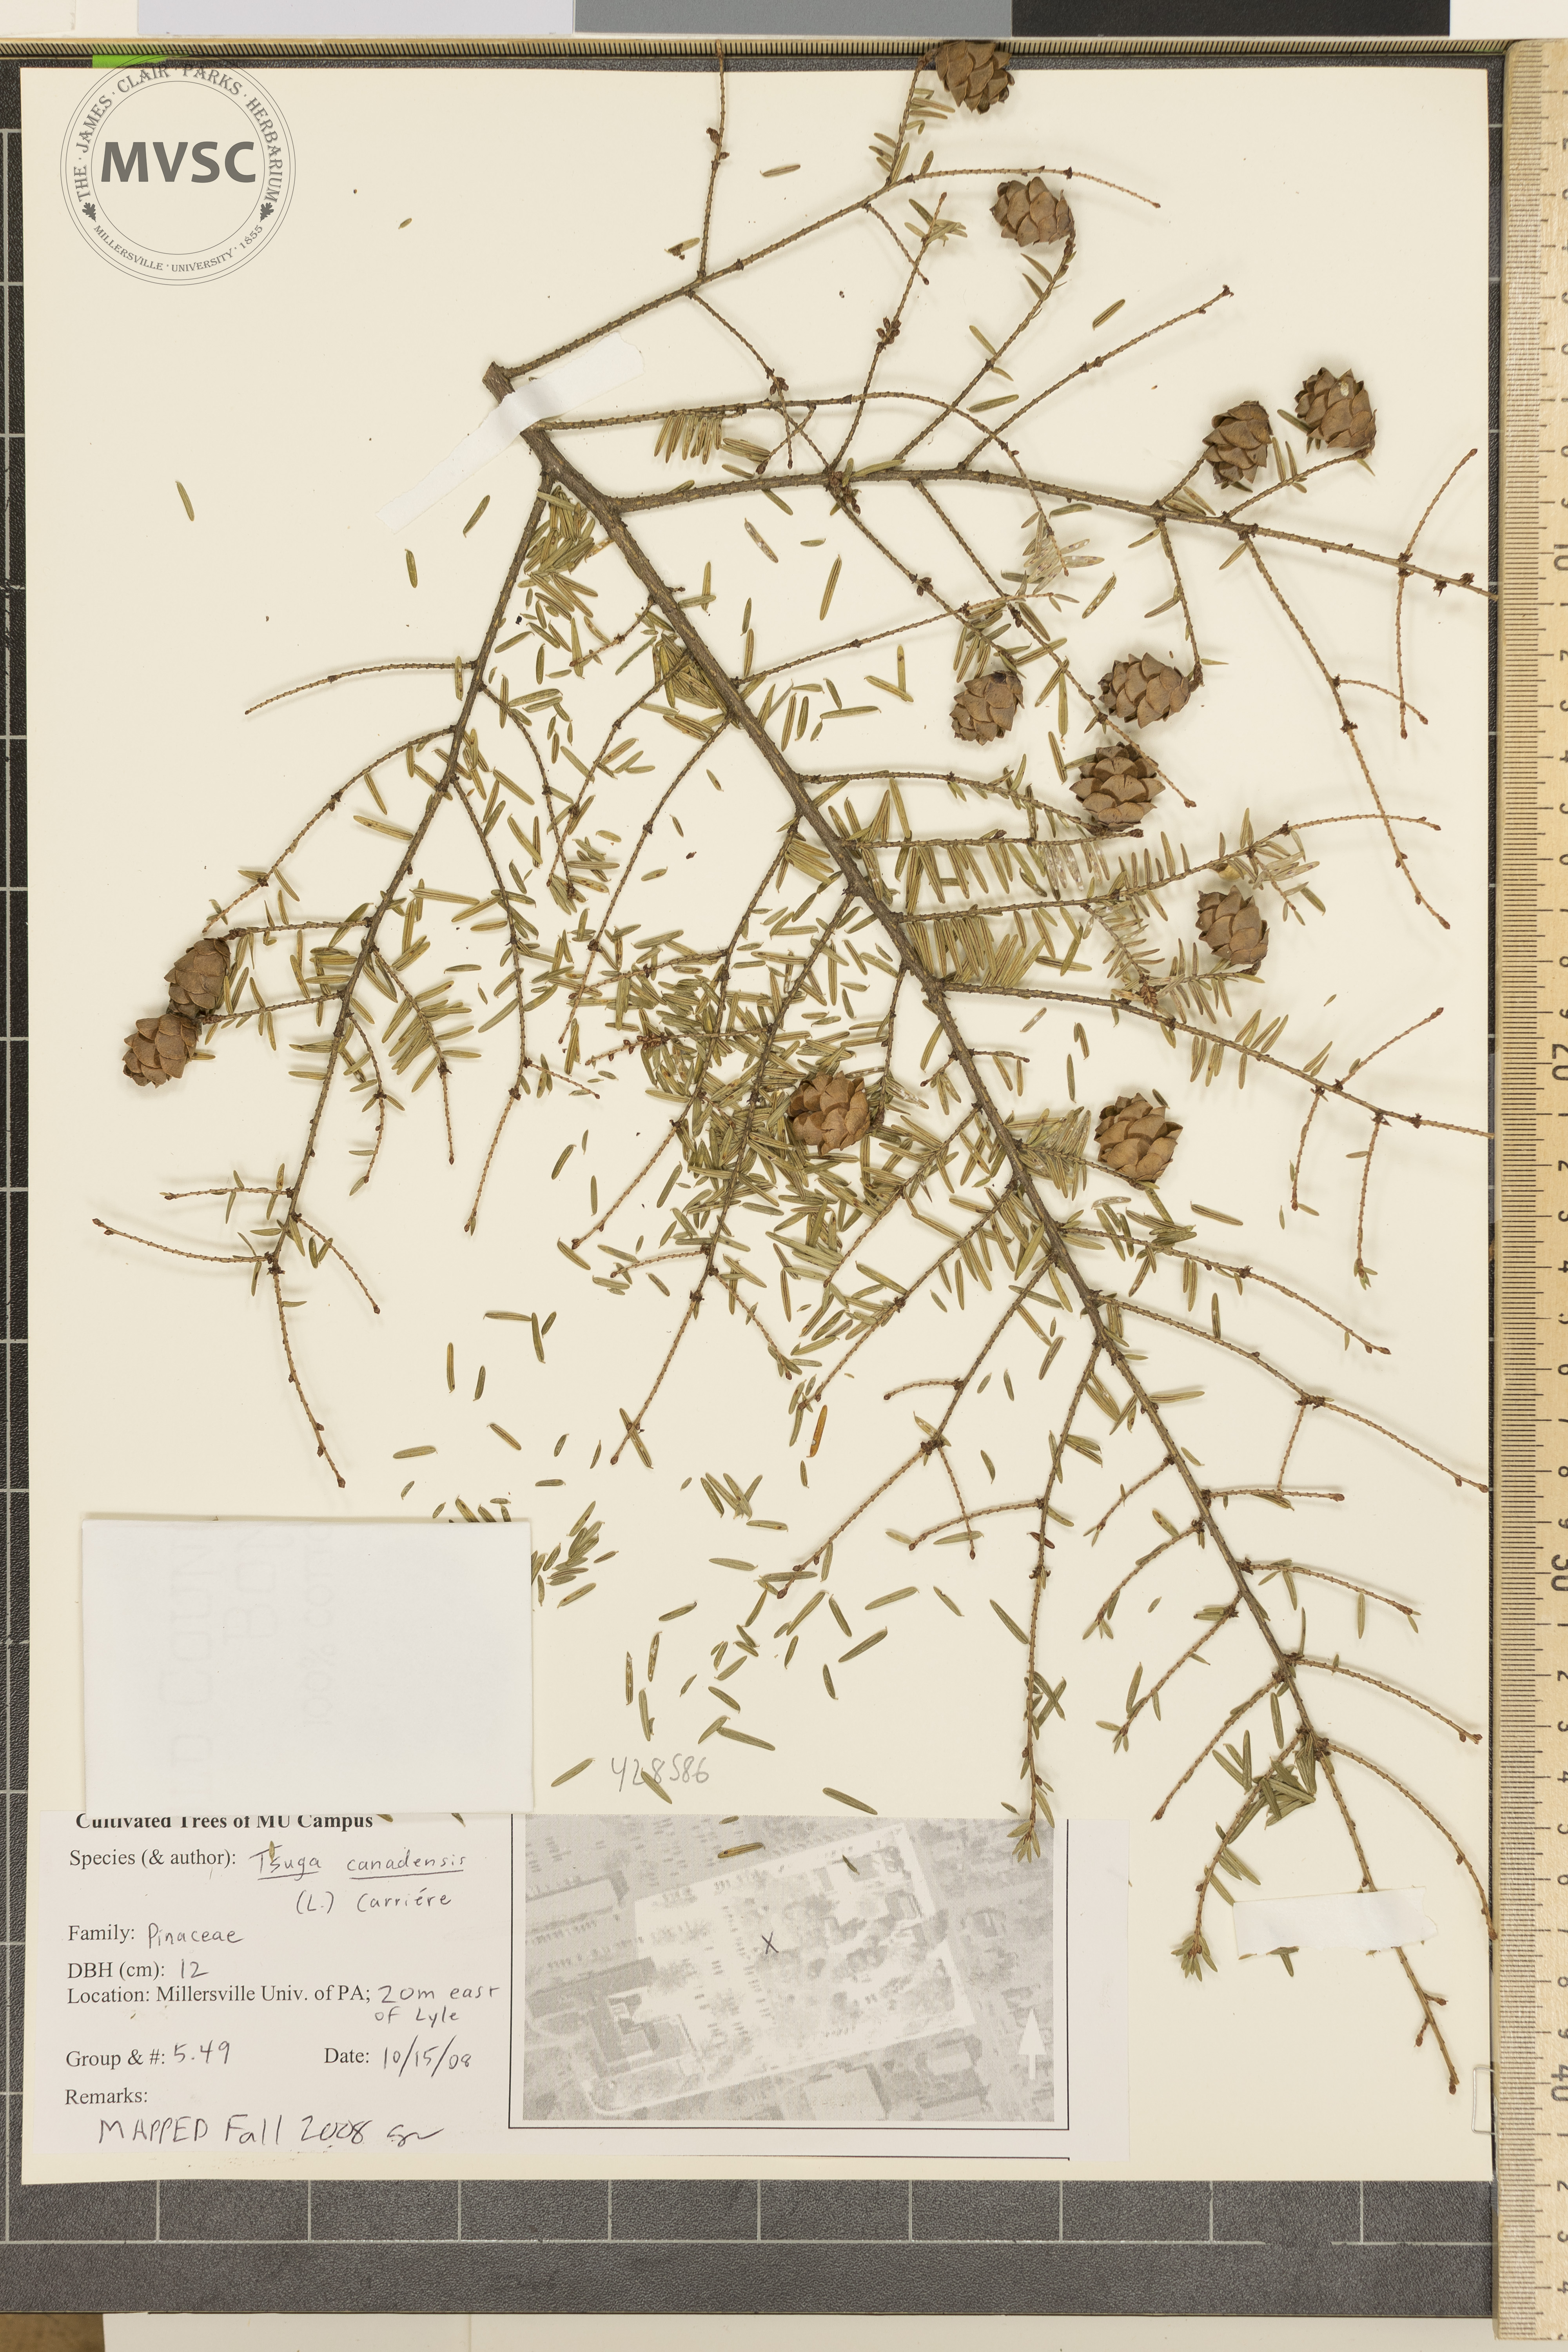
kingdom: Plantae
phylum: Tracheophyta
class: Pinopsida
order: Pinales
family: Pinaceae
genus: Tsuga
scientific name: Tsuga canadensis
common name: Canadian Hemlock
